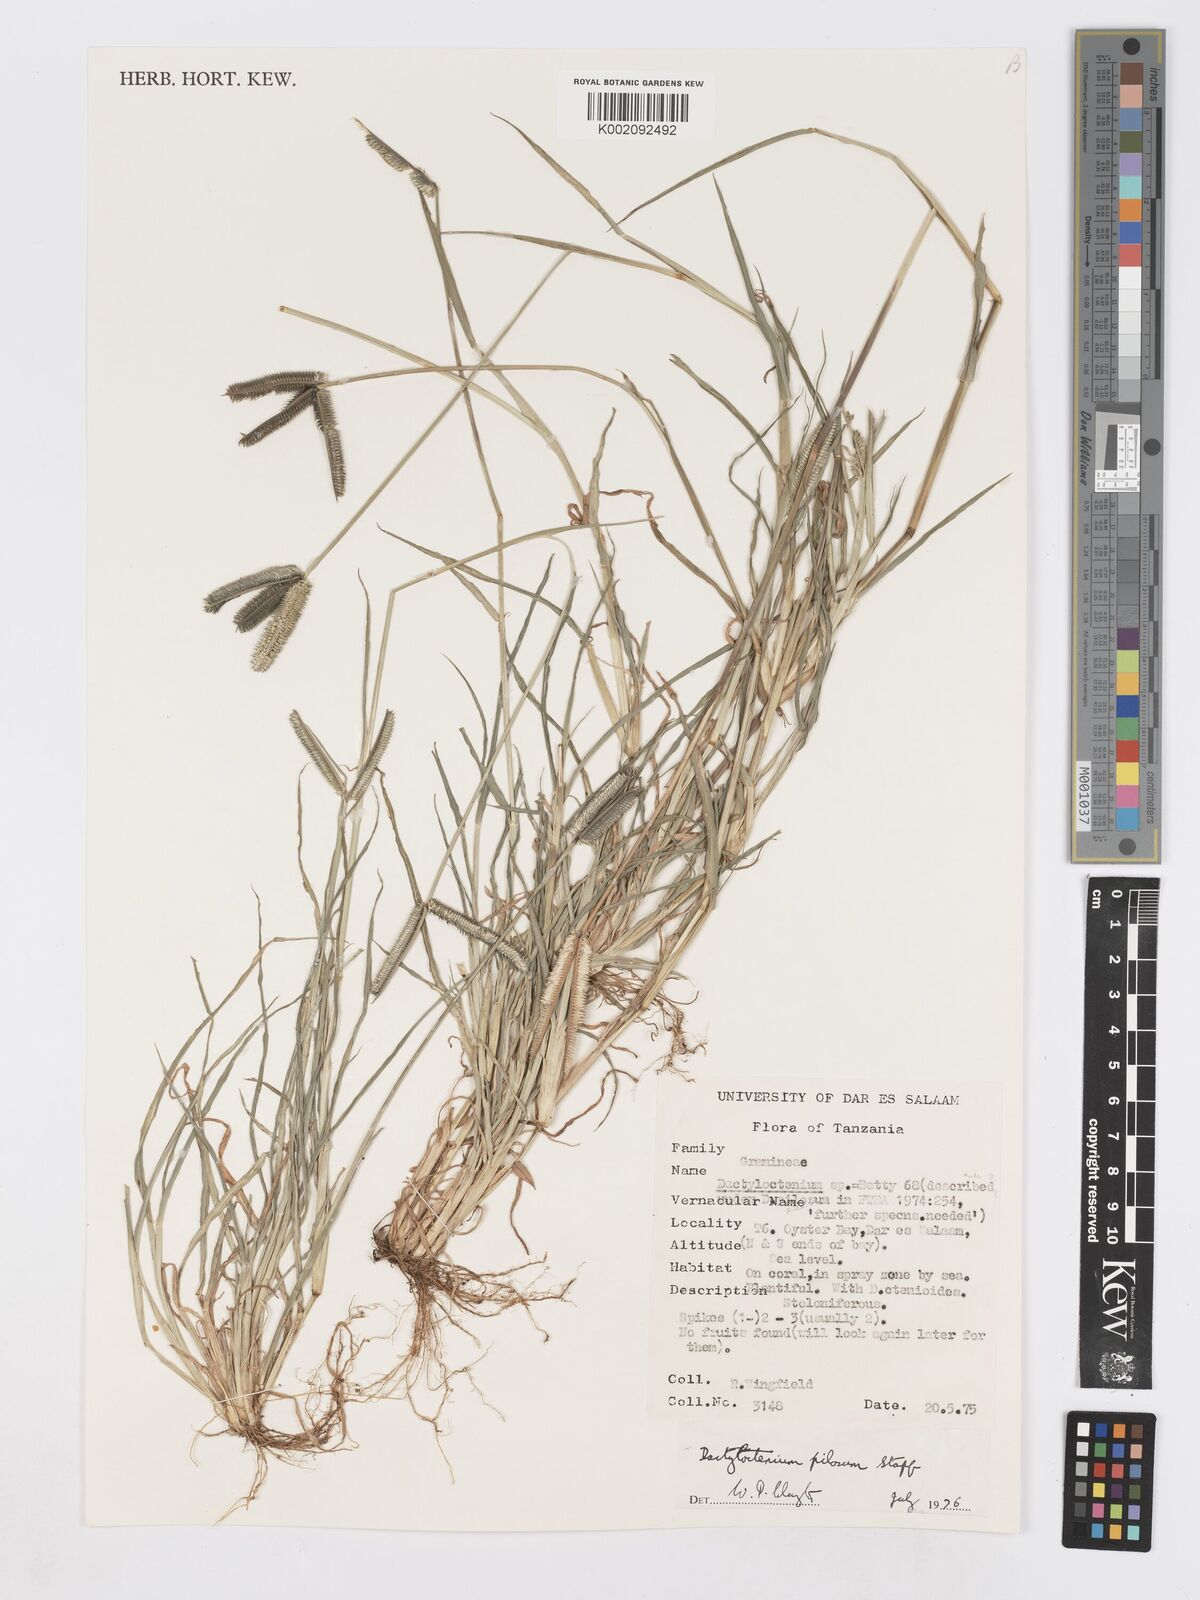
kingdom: Plantae
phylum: Tracheophyta
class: Liliopsida
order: Poales
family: Poaceae
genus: Dactyloctenium
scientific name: Dactyloctenium pilosum
